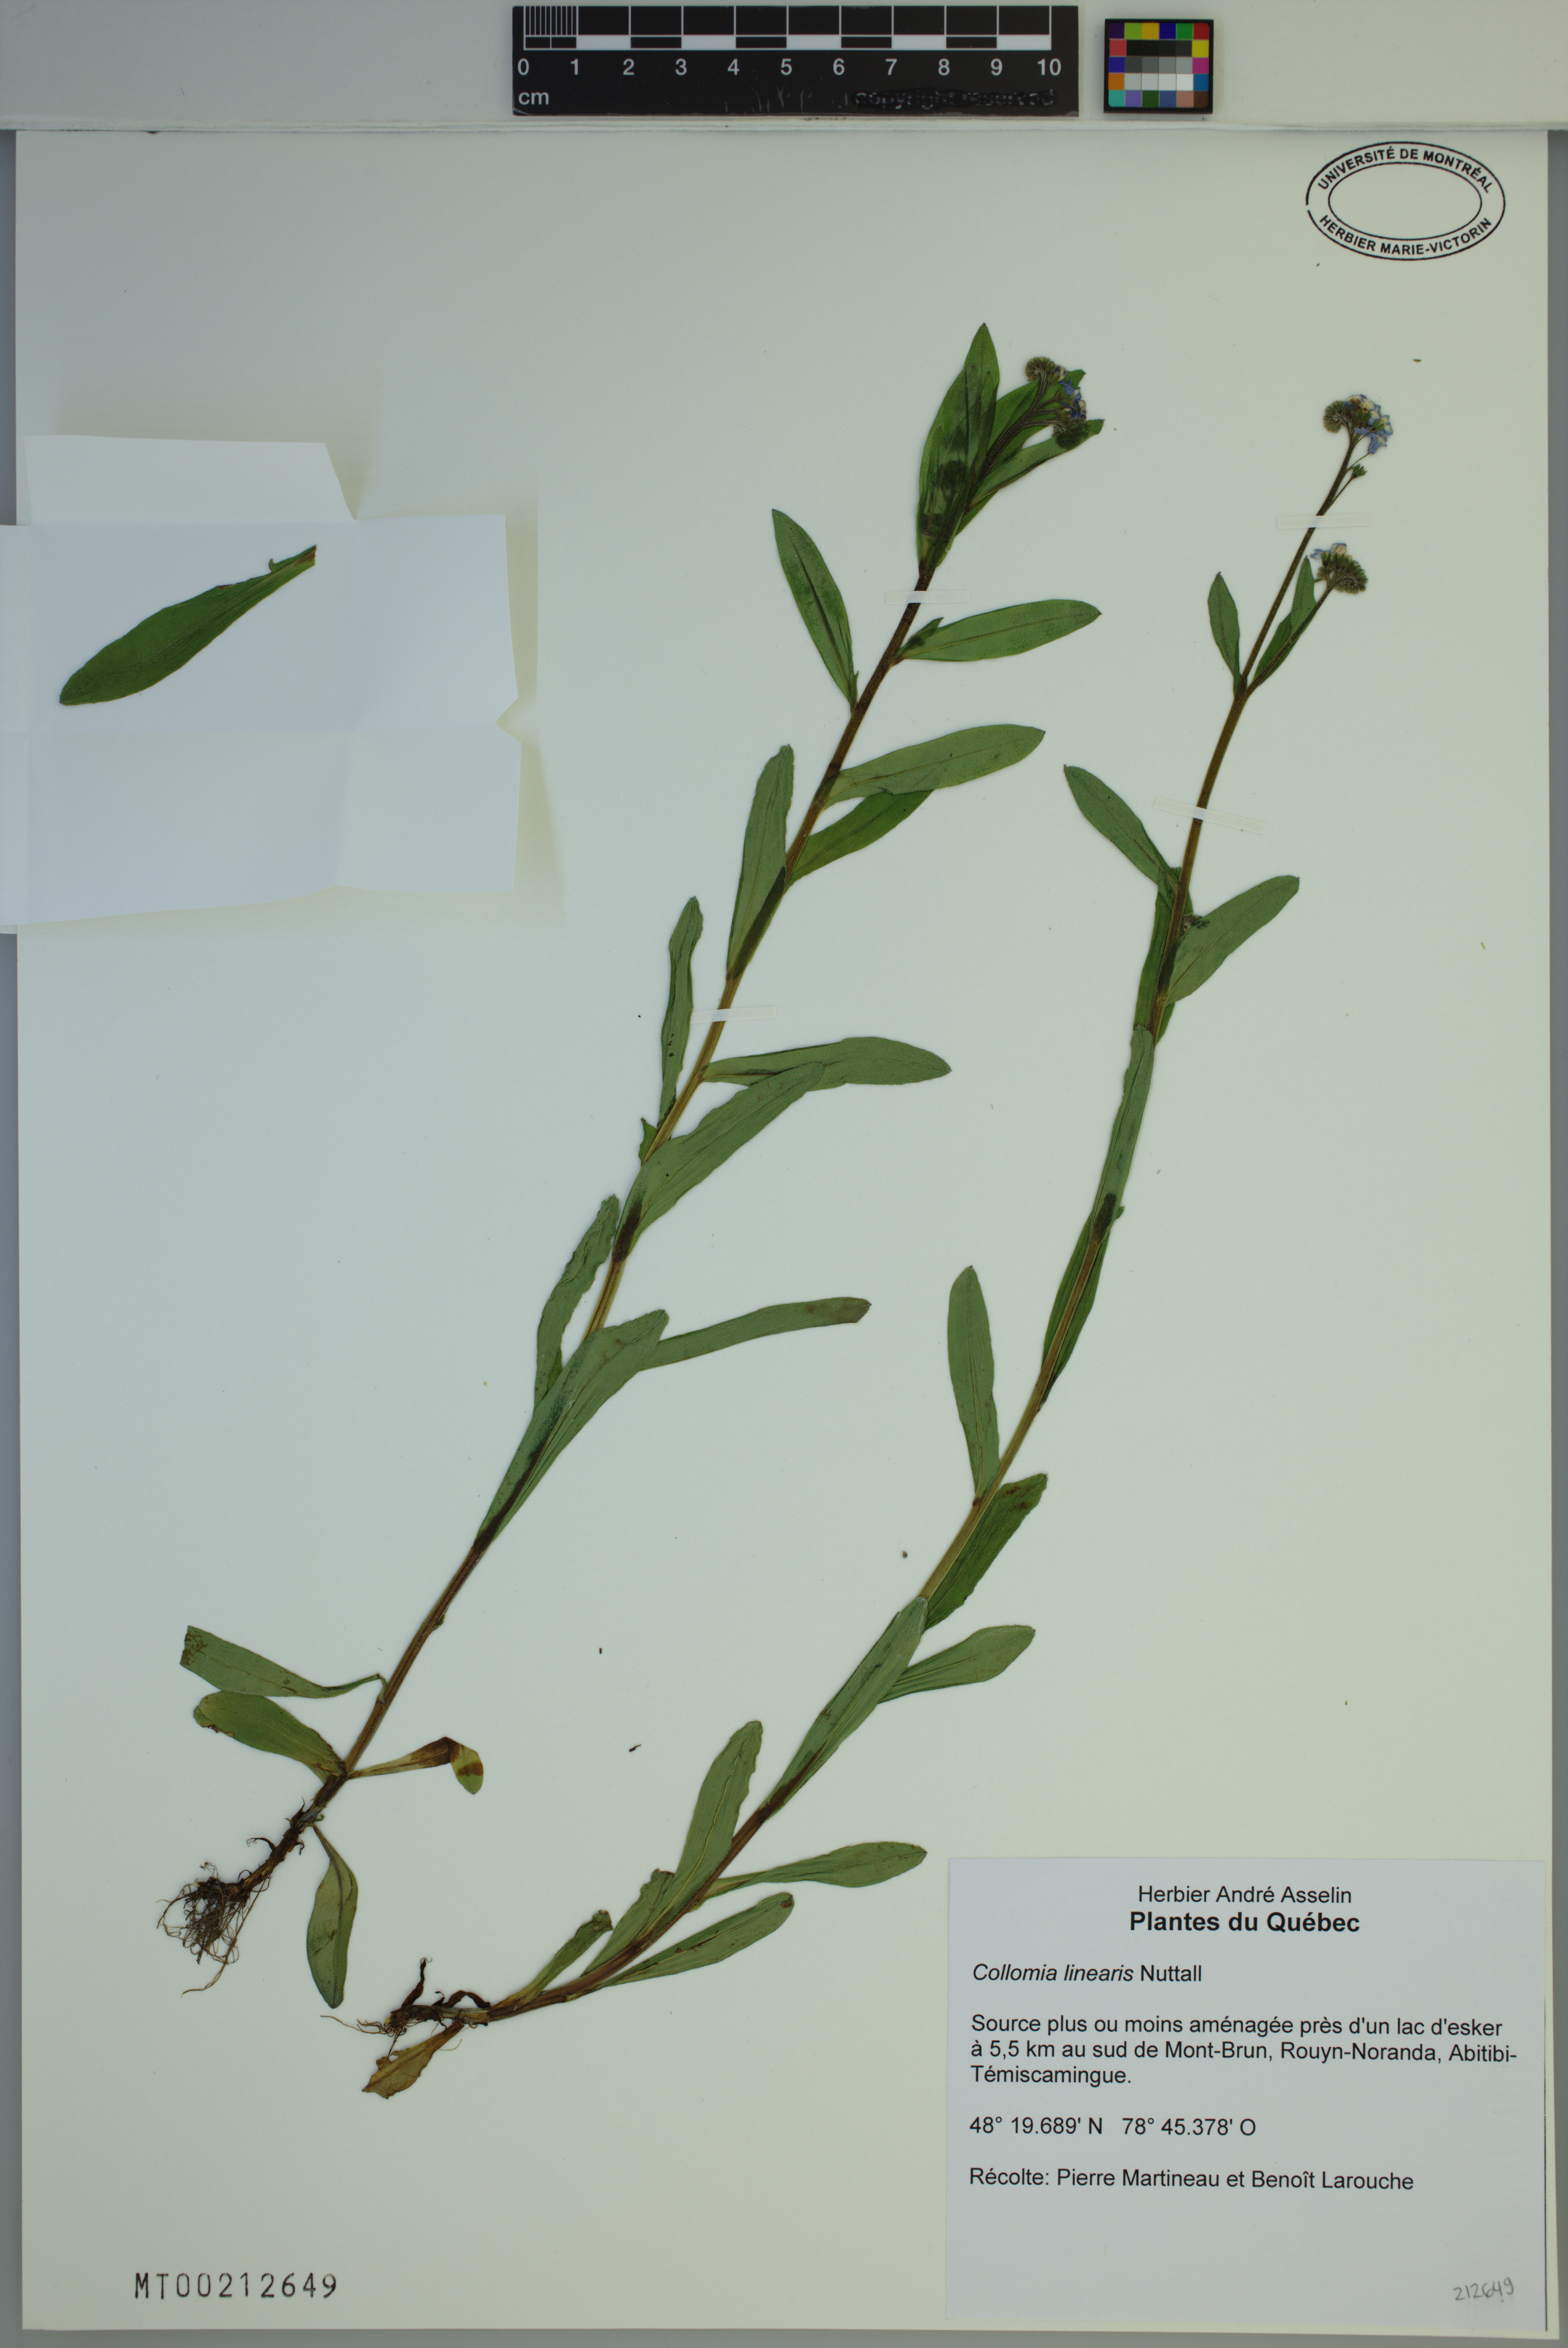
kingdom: Plantae
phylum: Tracheophyta
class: Magnoliopsida
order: Ericales
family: Polemoniaceae
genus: Collomia
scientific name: Collomia linearis
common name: Tiny trumpet
